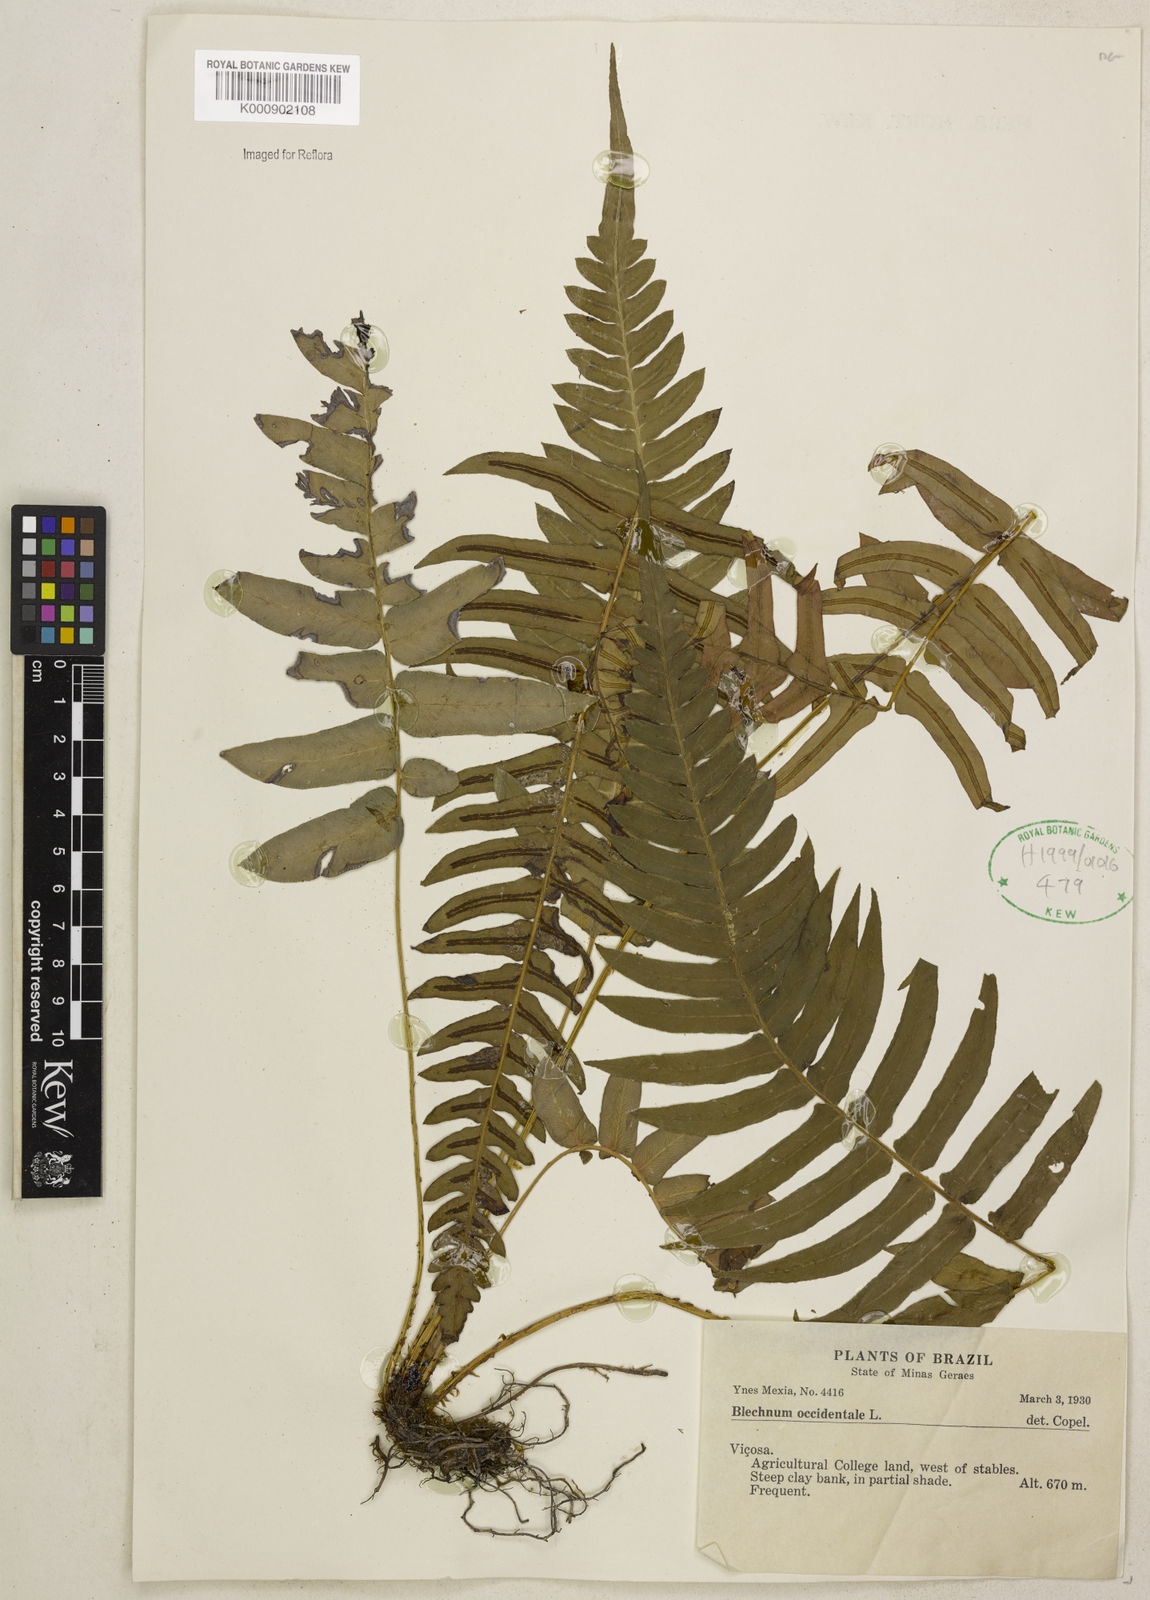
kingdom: Plantae
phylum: Tracheophyta
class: Polypodiopsida
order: Polypodiales
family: Blechnaceae
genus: Blechnum
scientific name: Blechnum occidentale
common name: Hammock fern
